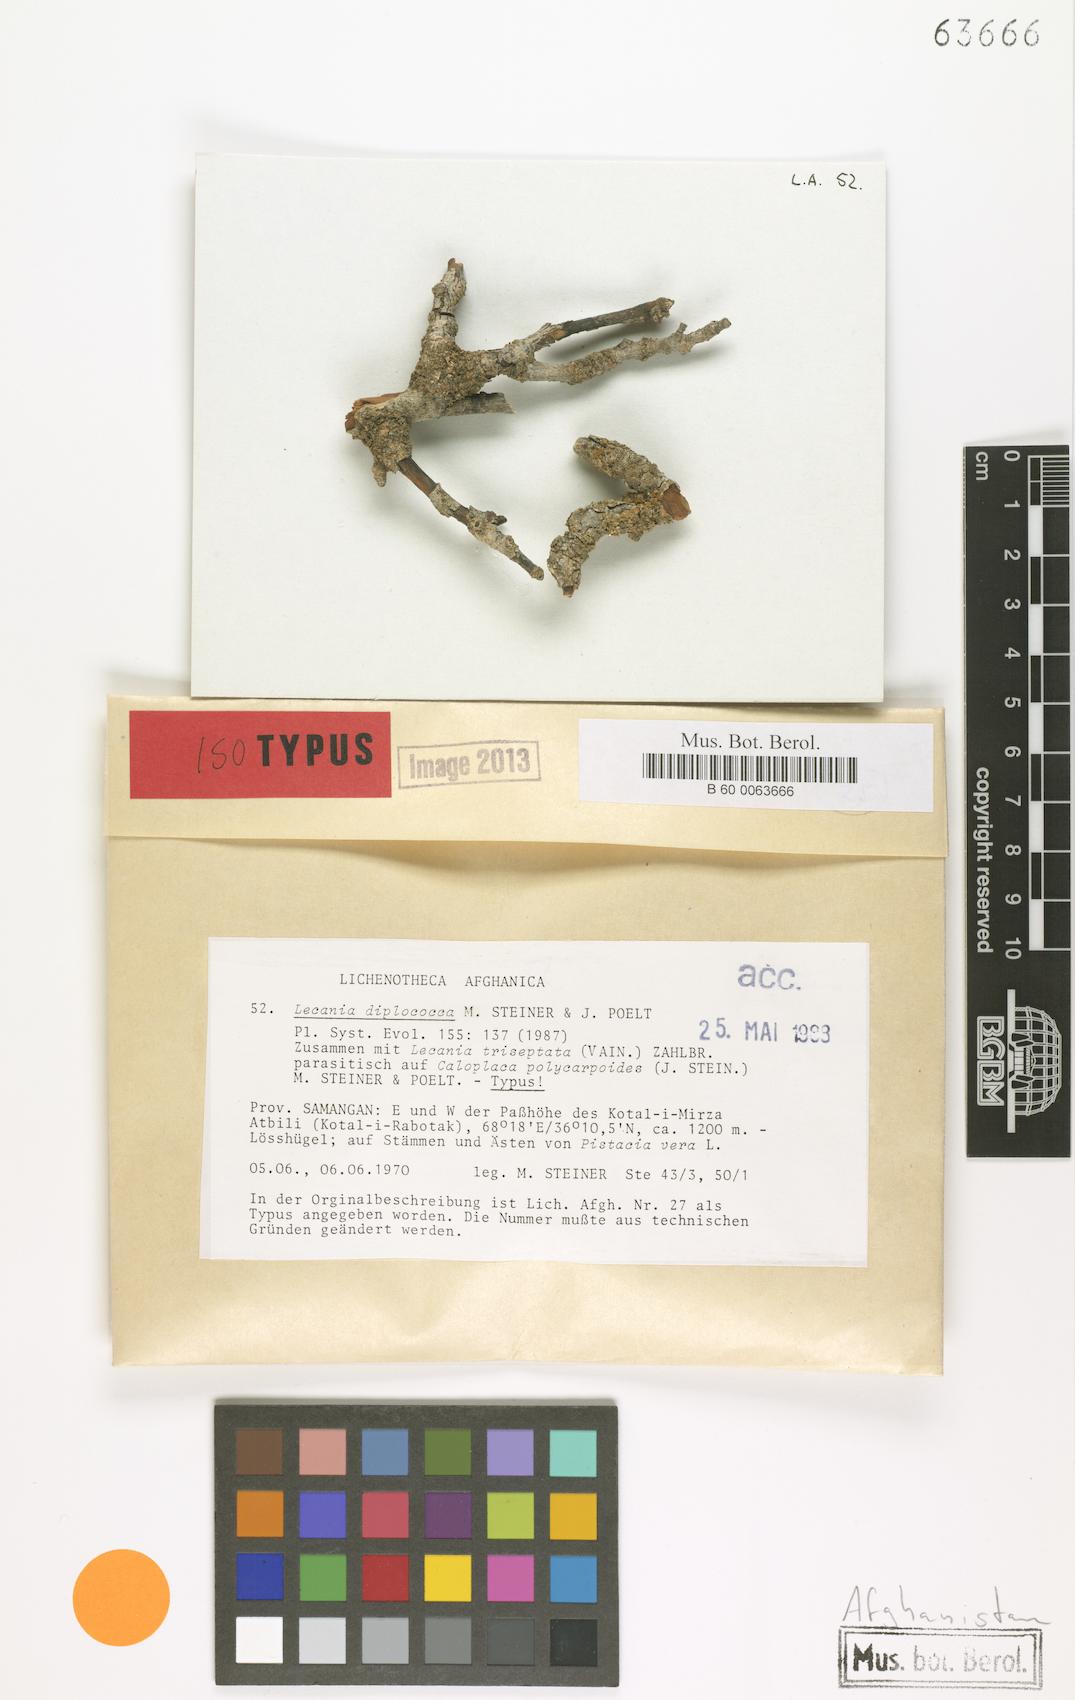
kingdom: Fungi
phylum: Ascomycota
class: Lecanoromycetes
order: Lecanorales
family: Ramalinaceae
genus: Lecania
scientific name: Lecania
